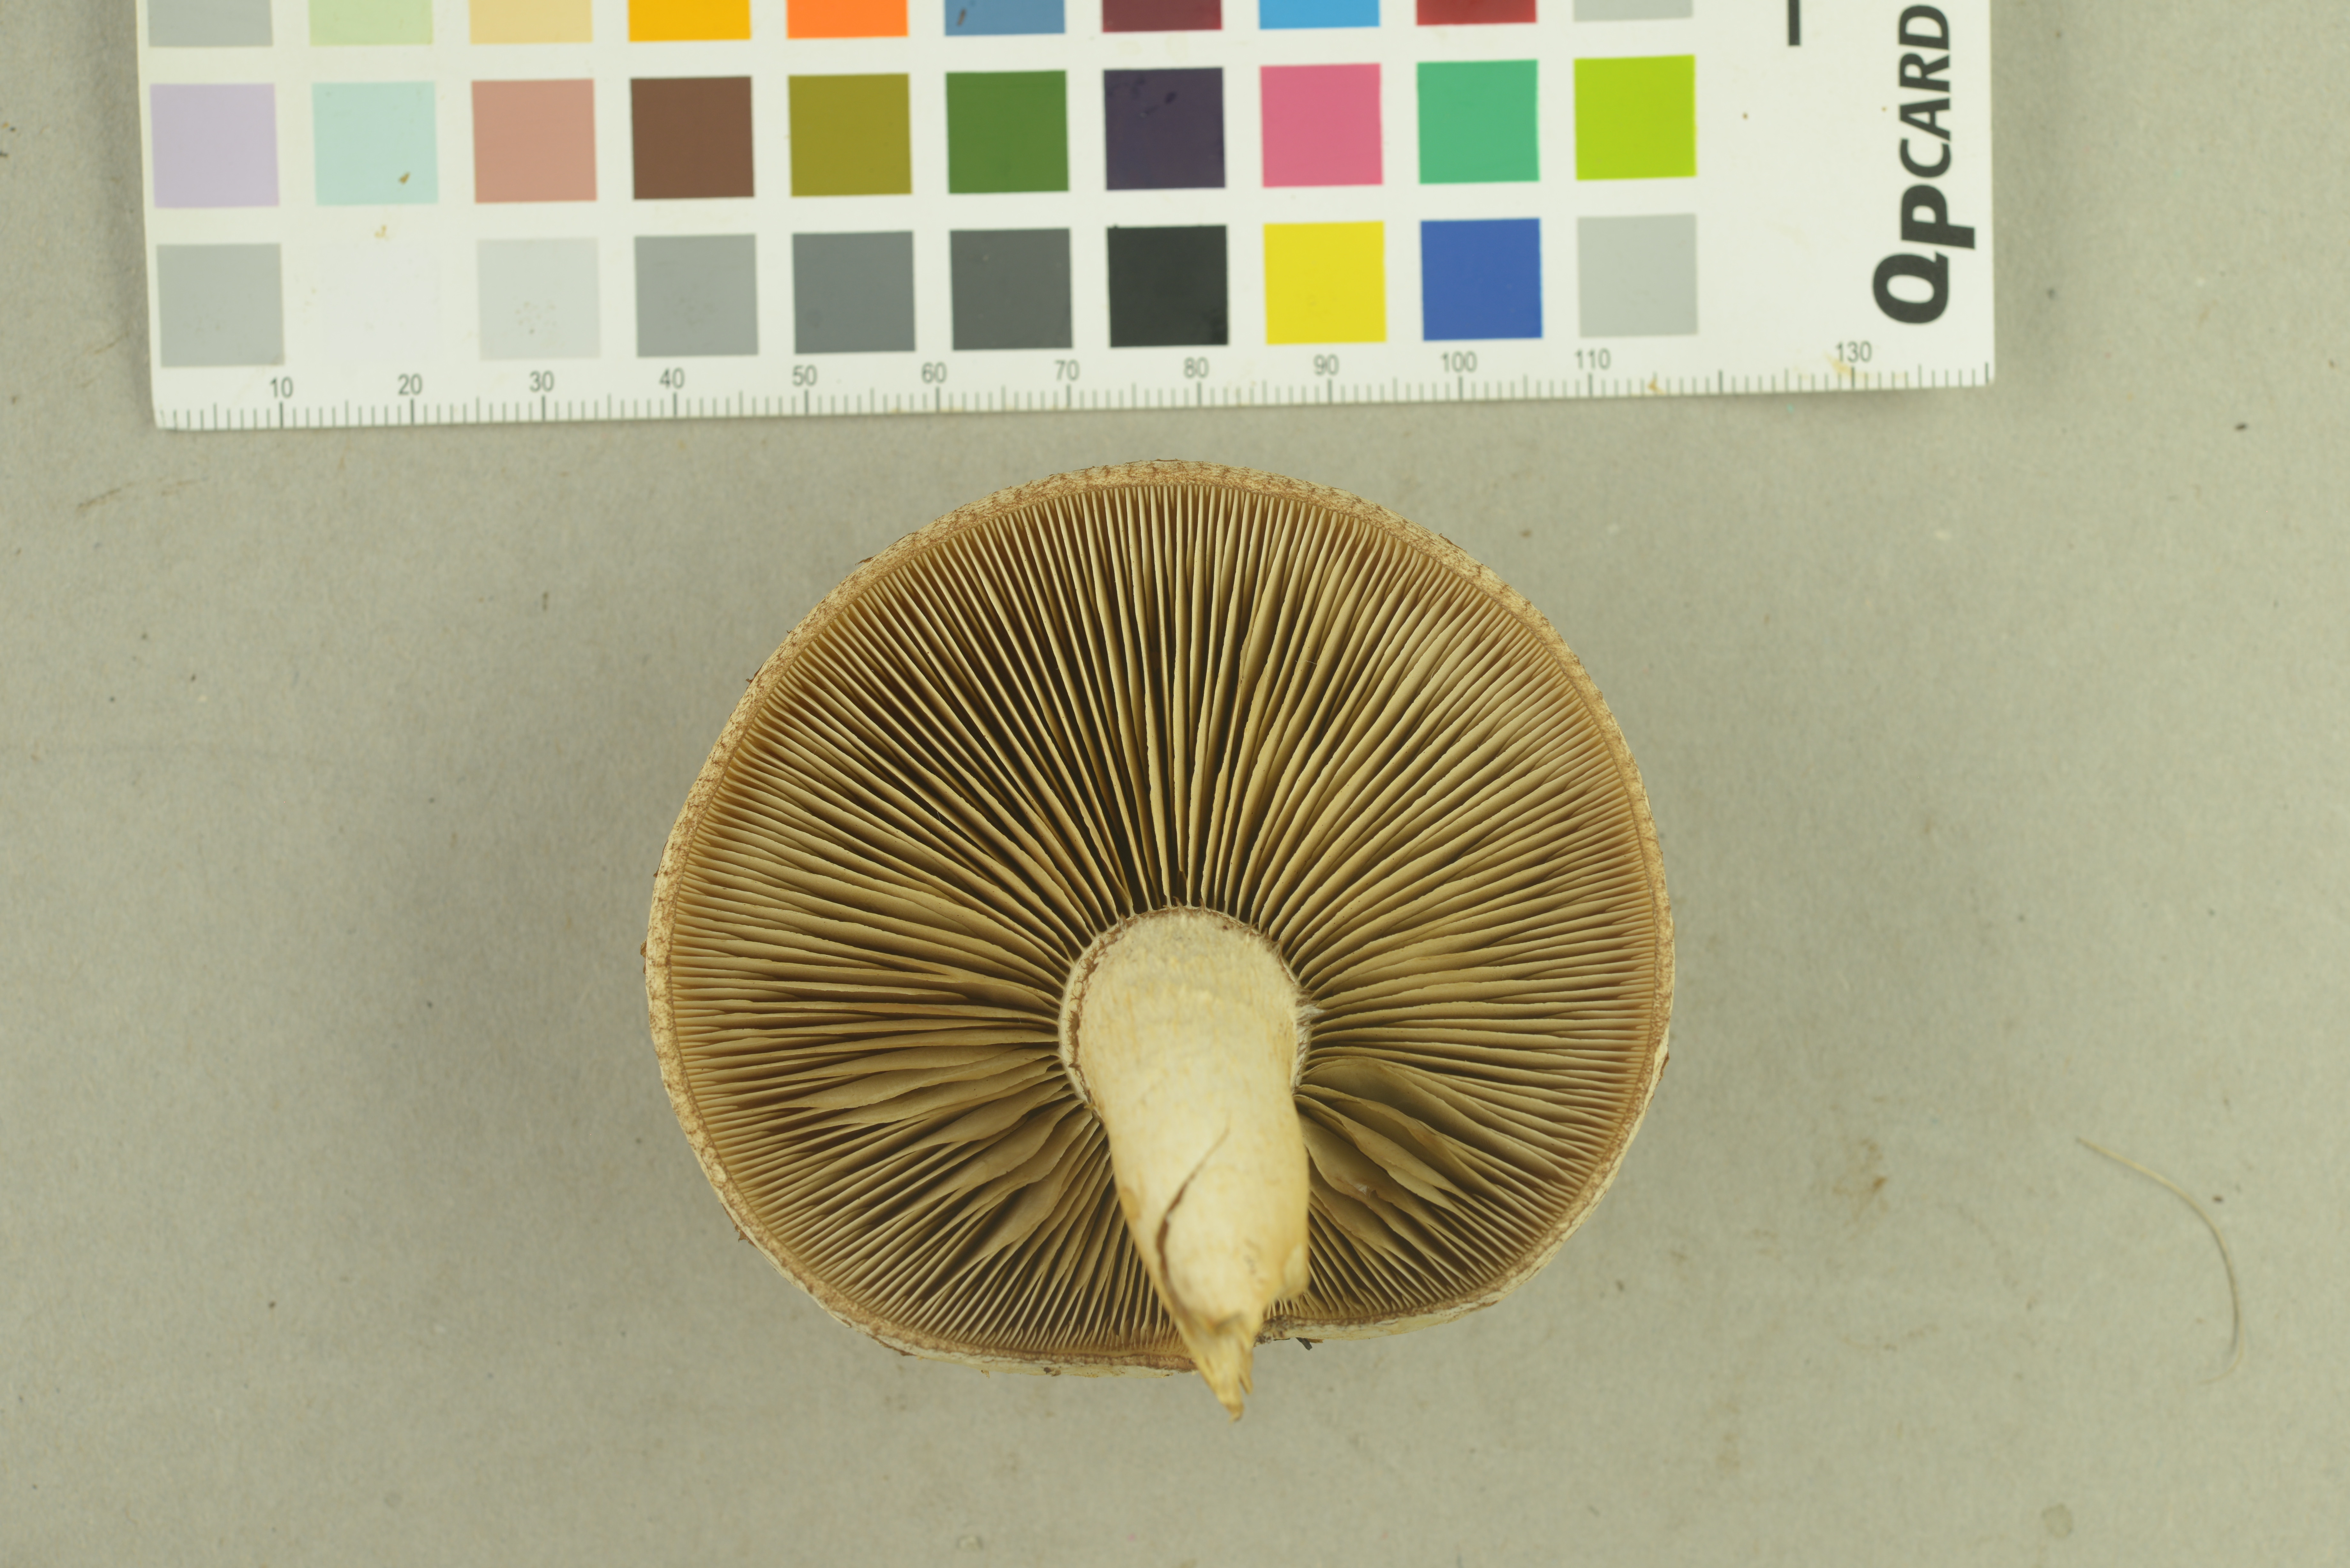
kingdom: Fungi
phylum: Basidiomycota
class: Agaricomycetes
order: Agaricales
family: Strophariaceae
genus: Pholiota
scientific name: Pholiota heteroclita
